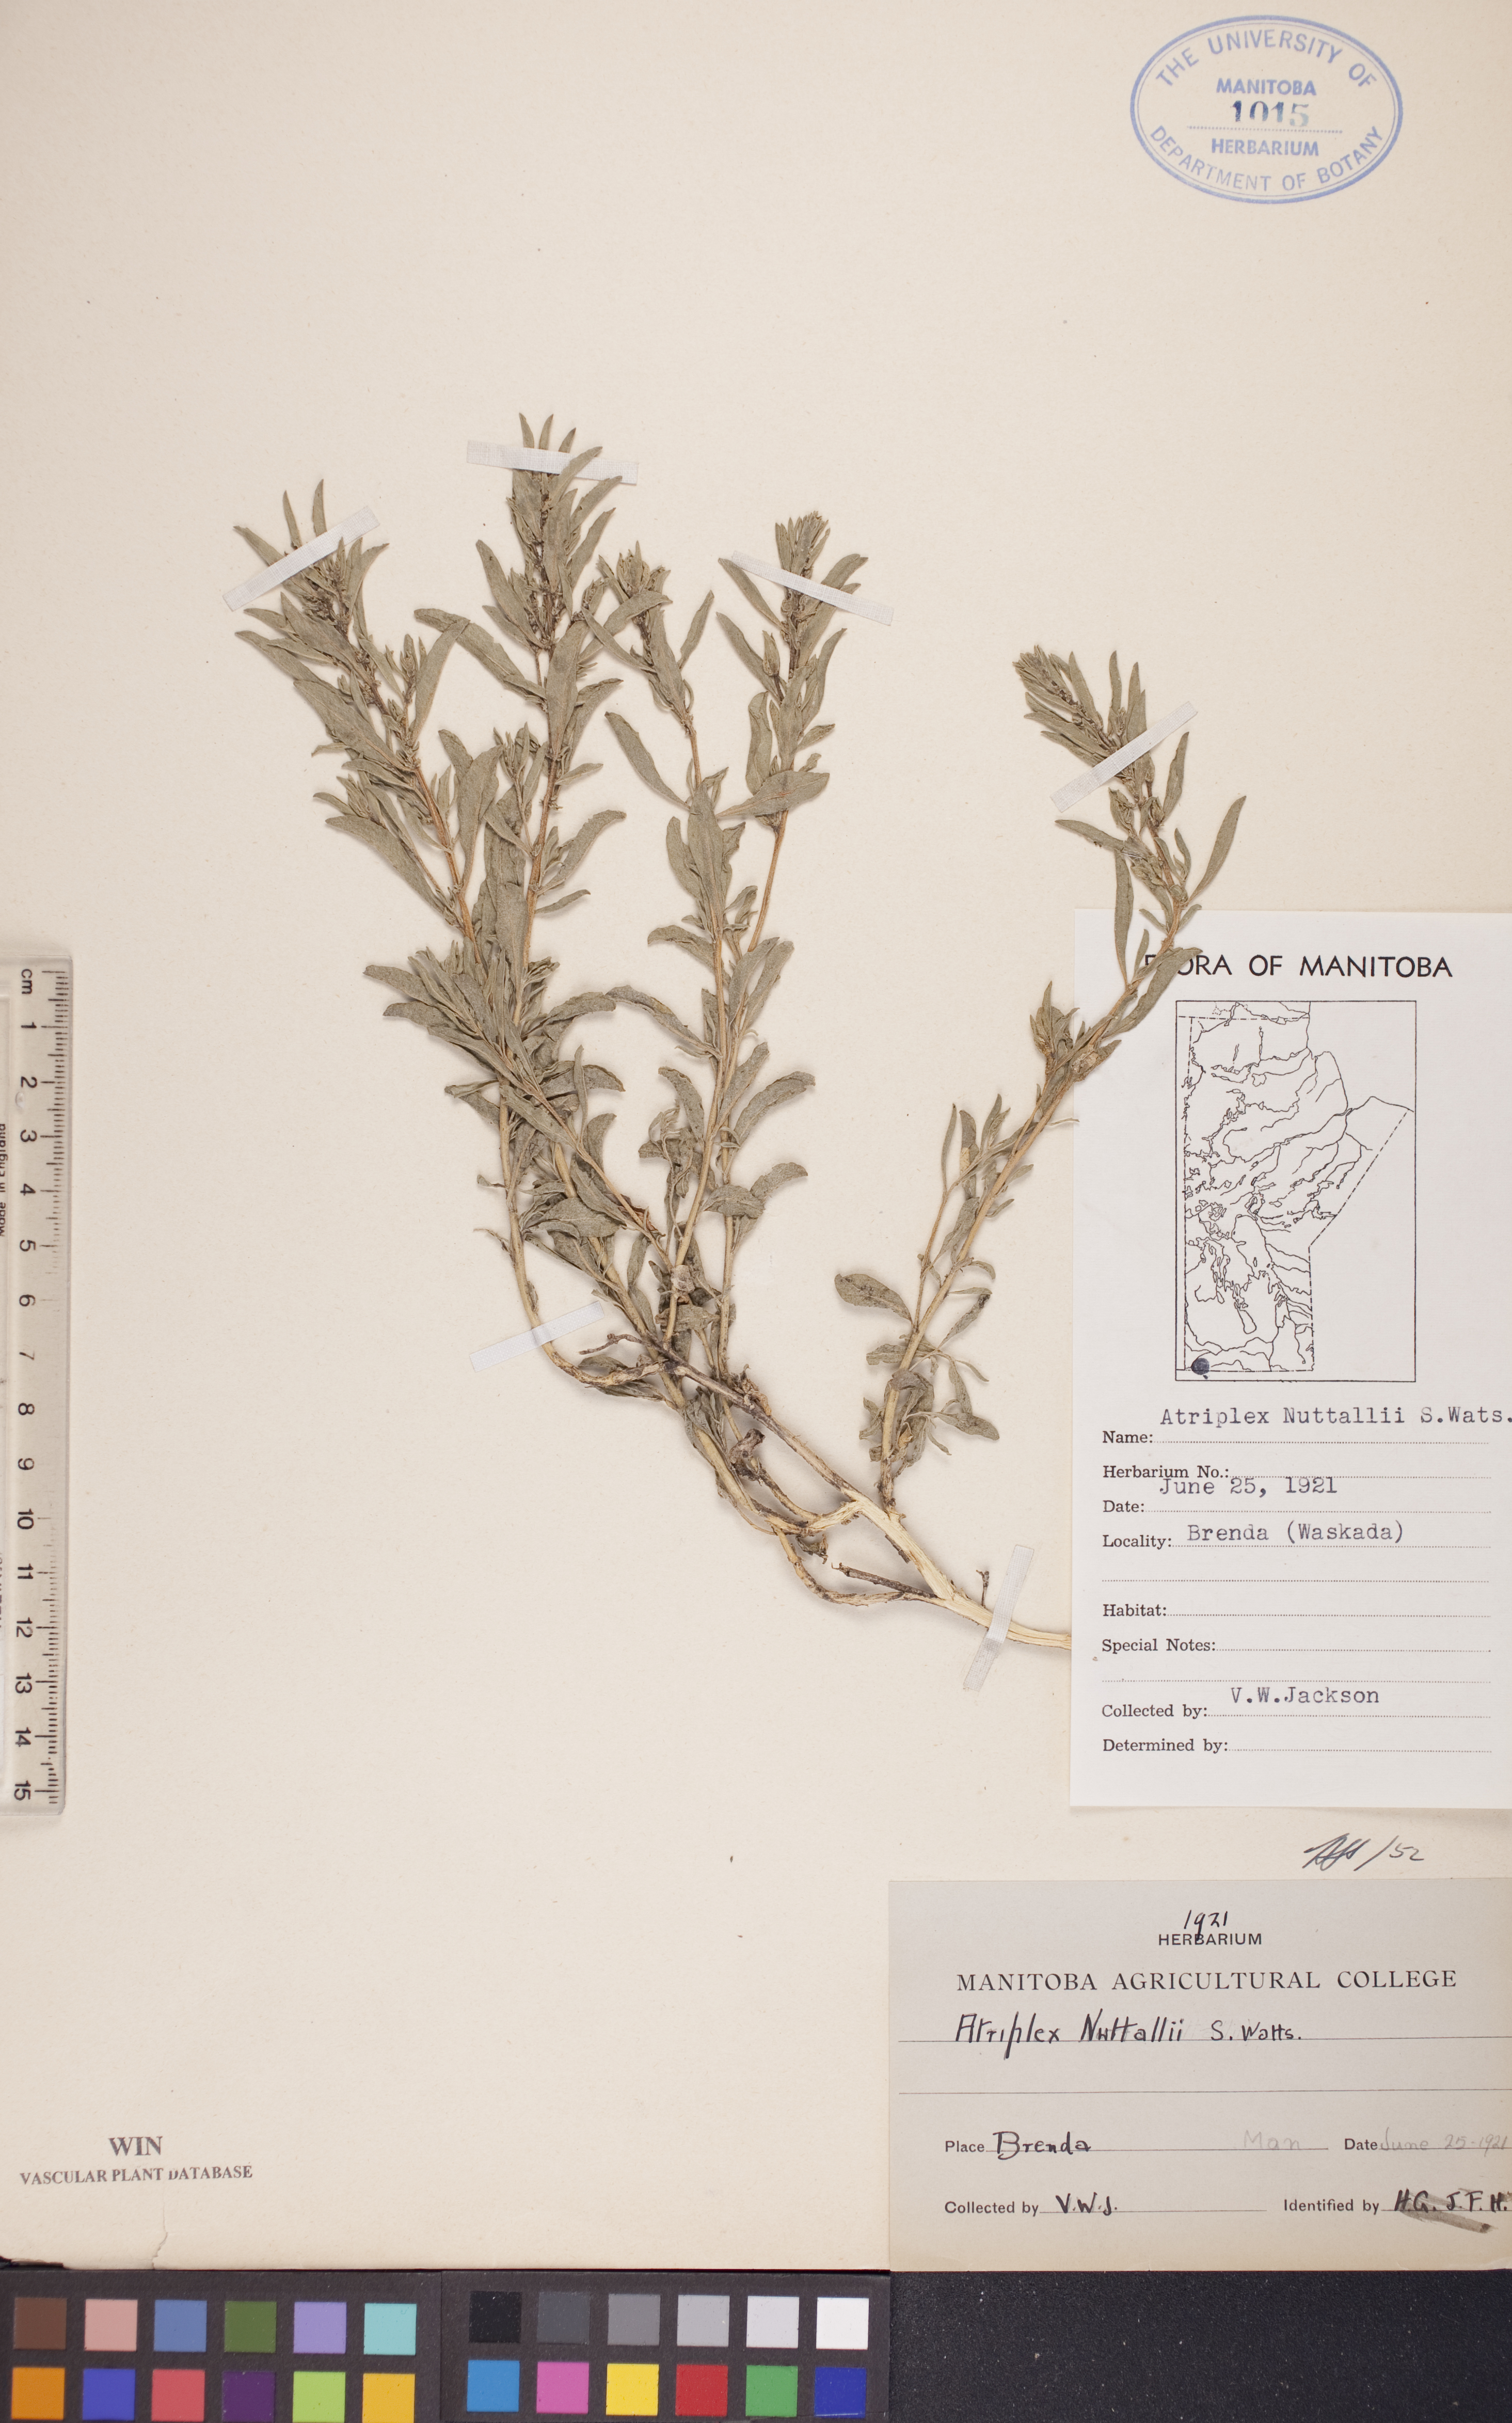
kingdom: Plantae
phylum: Tracheophyta
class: Magnoliopsida
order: Caryophyllales
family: Amaranthaceae
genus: Atriplex
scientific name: Atriplex canescens
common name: Four-wing saltbush
